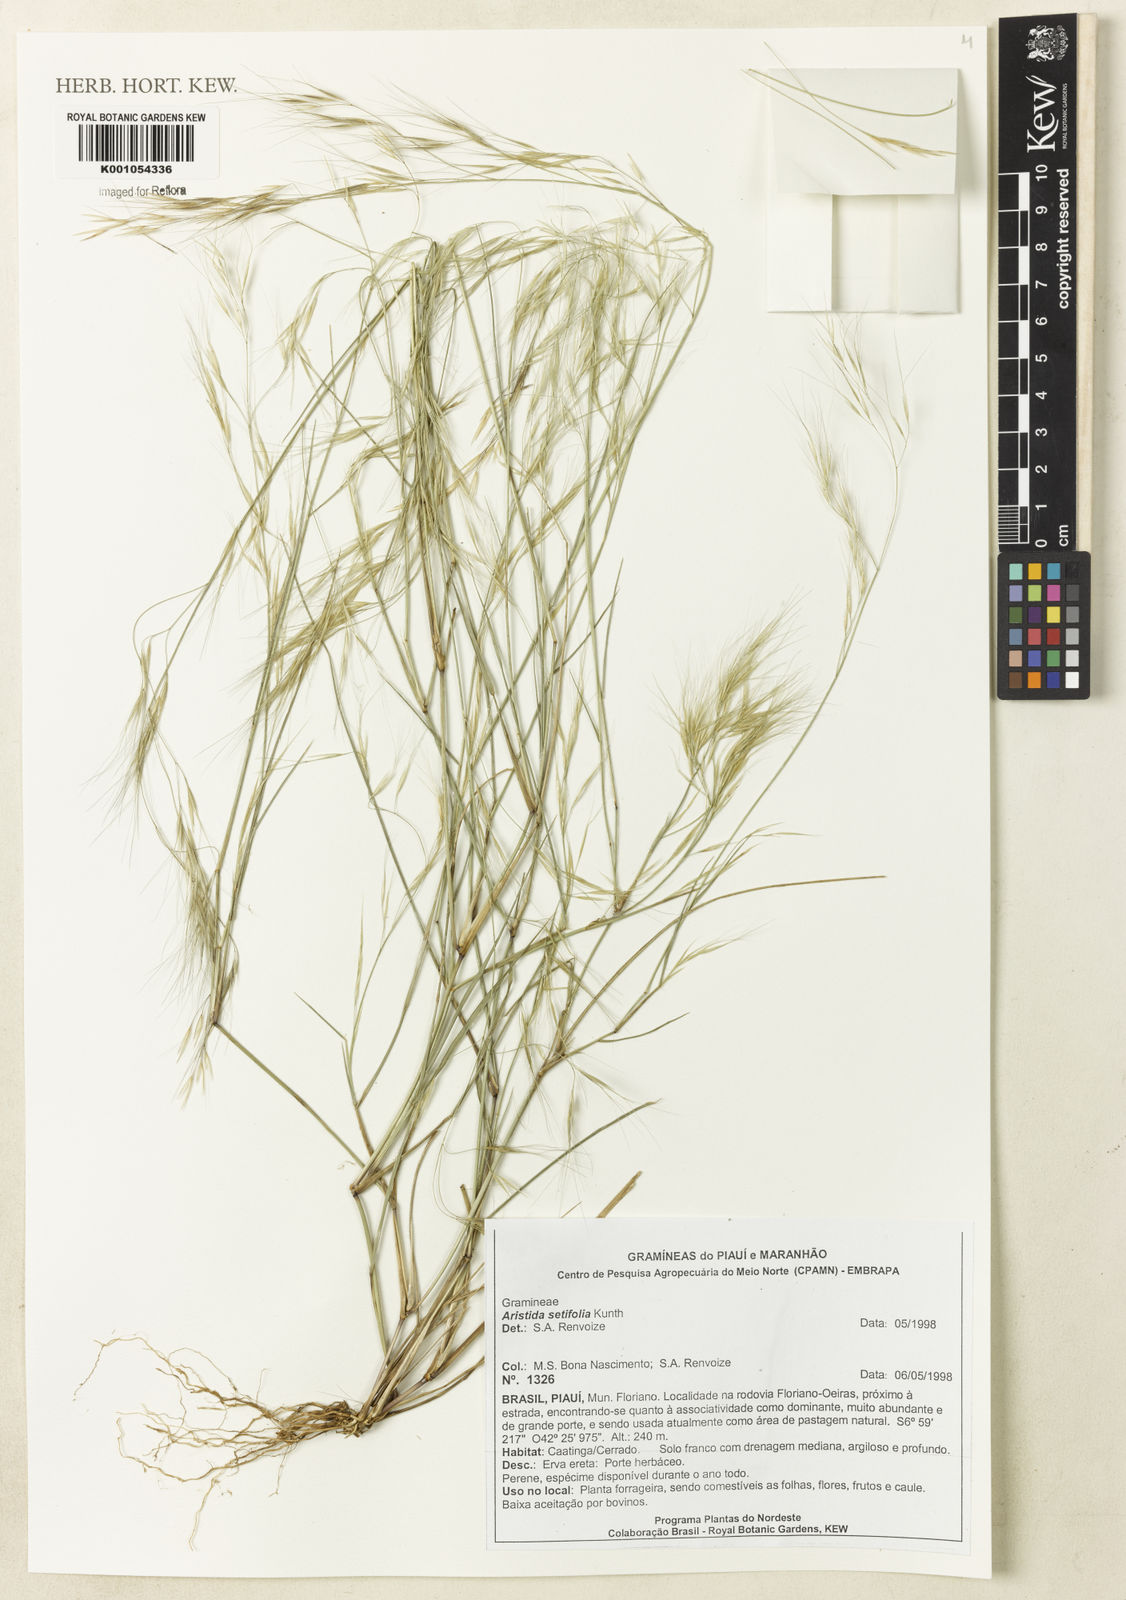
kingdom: Plantae
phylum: Tracheophyta
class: Liliopsida
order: Poales
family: Poaceae
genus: Aristida
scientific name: Aristida setifolia
